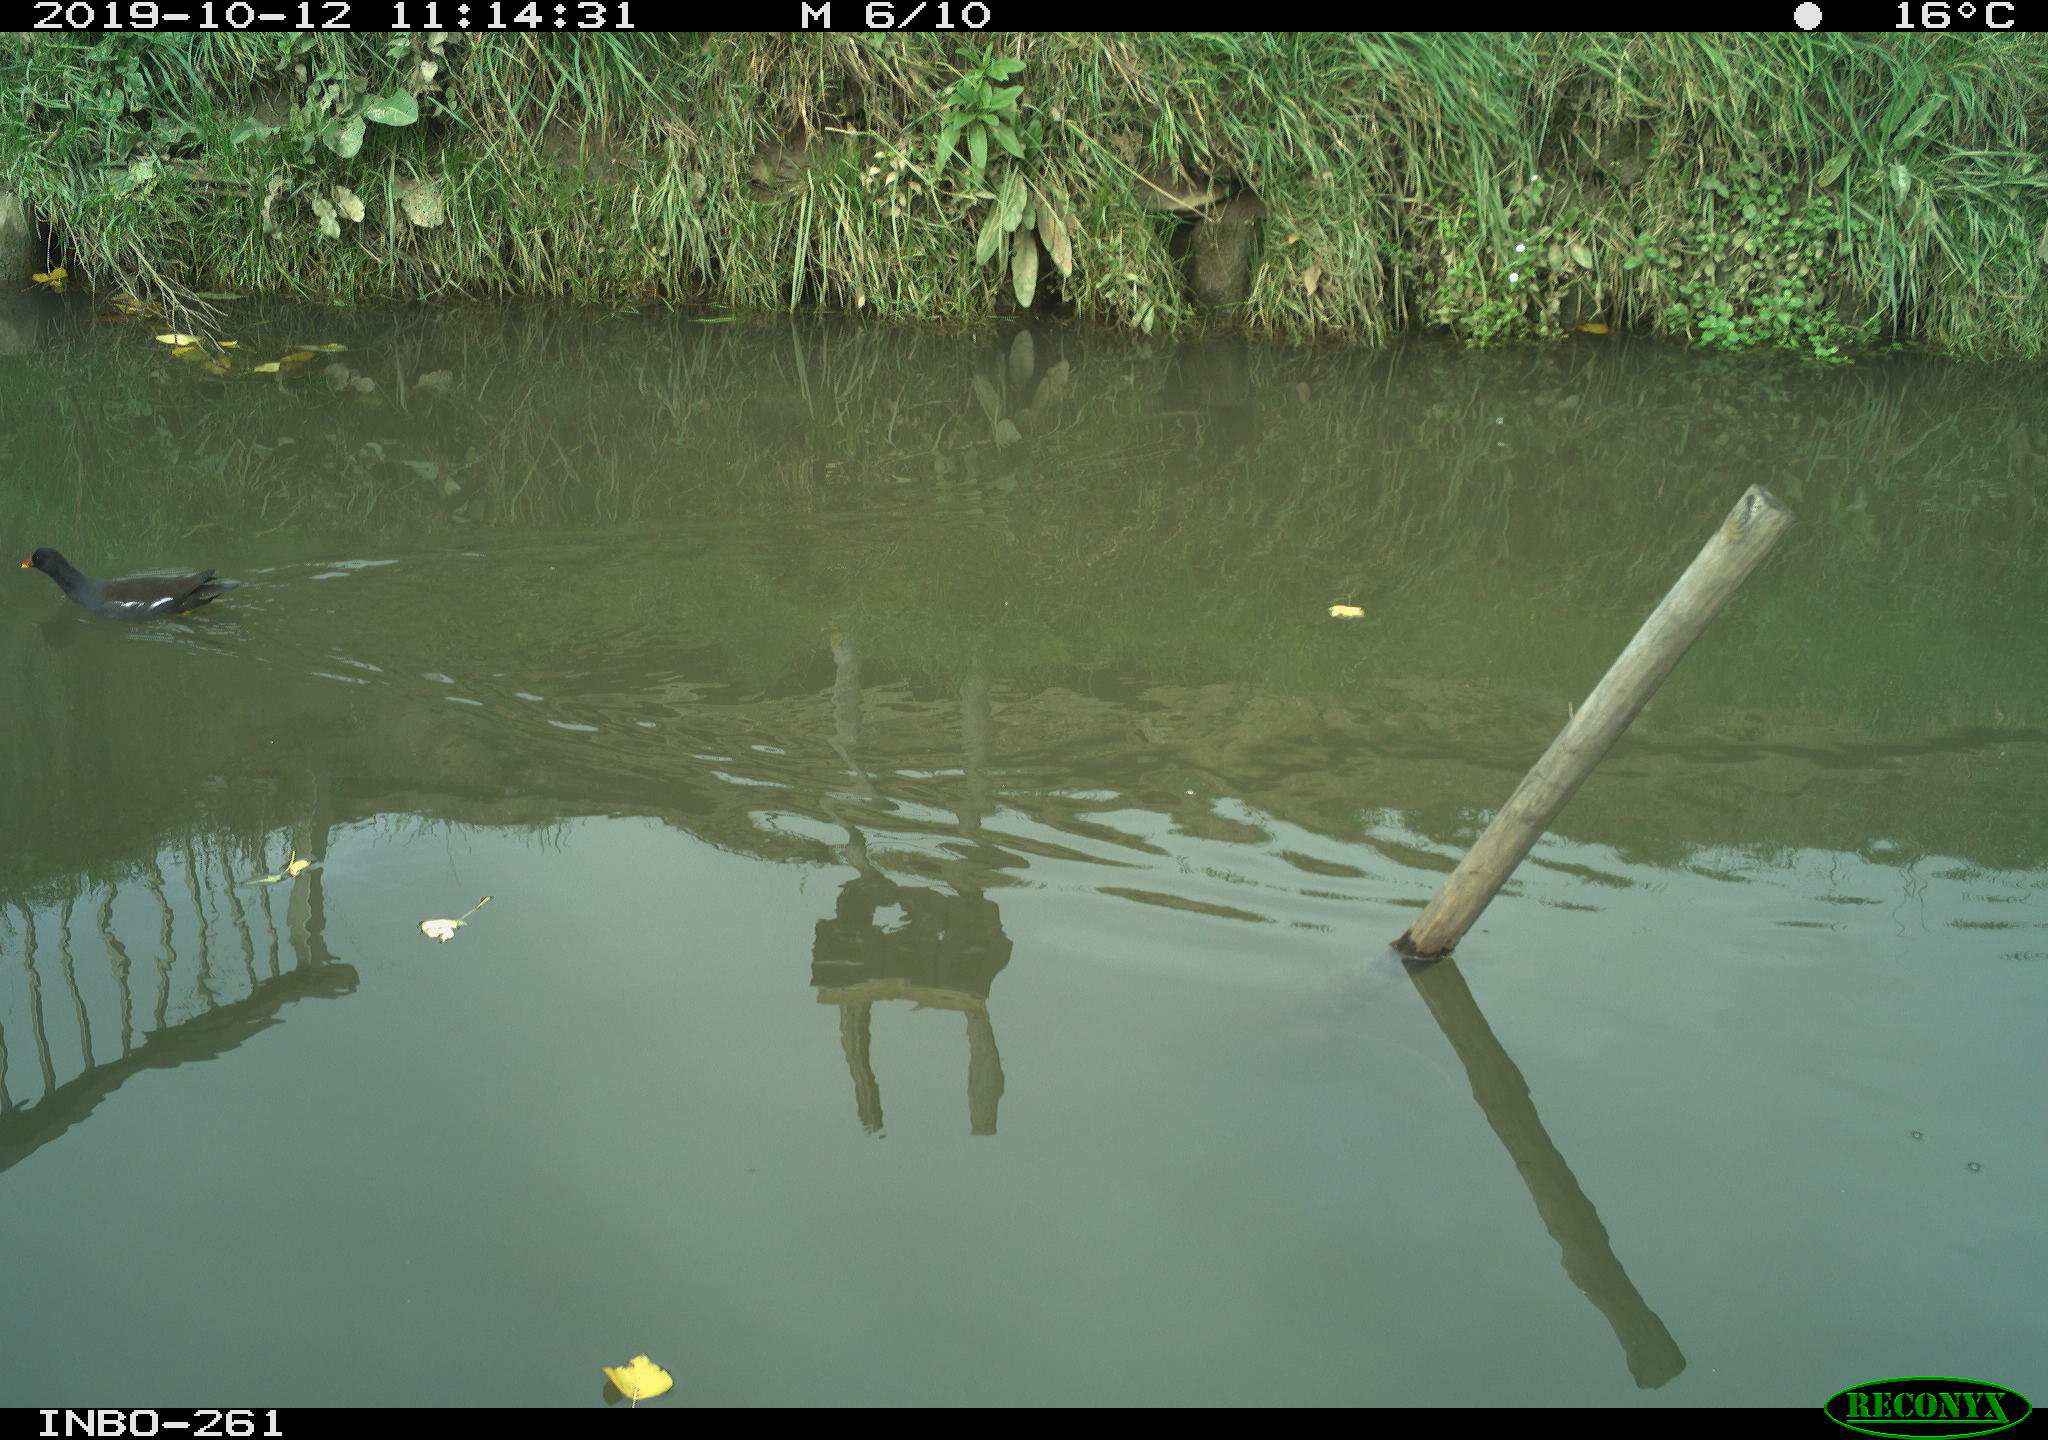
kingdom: Animalia
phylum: Chordata
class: Aves
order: Gruiformes
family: Rallidae
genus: Gallinula
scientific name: Gallinula chloropus
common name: Common moorhen
